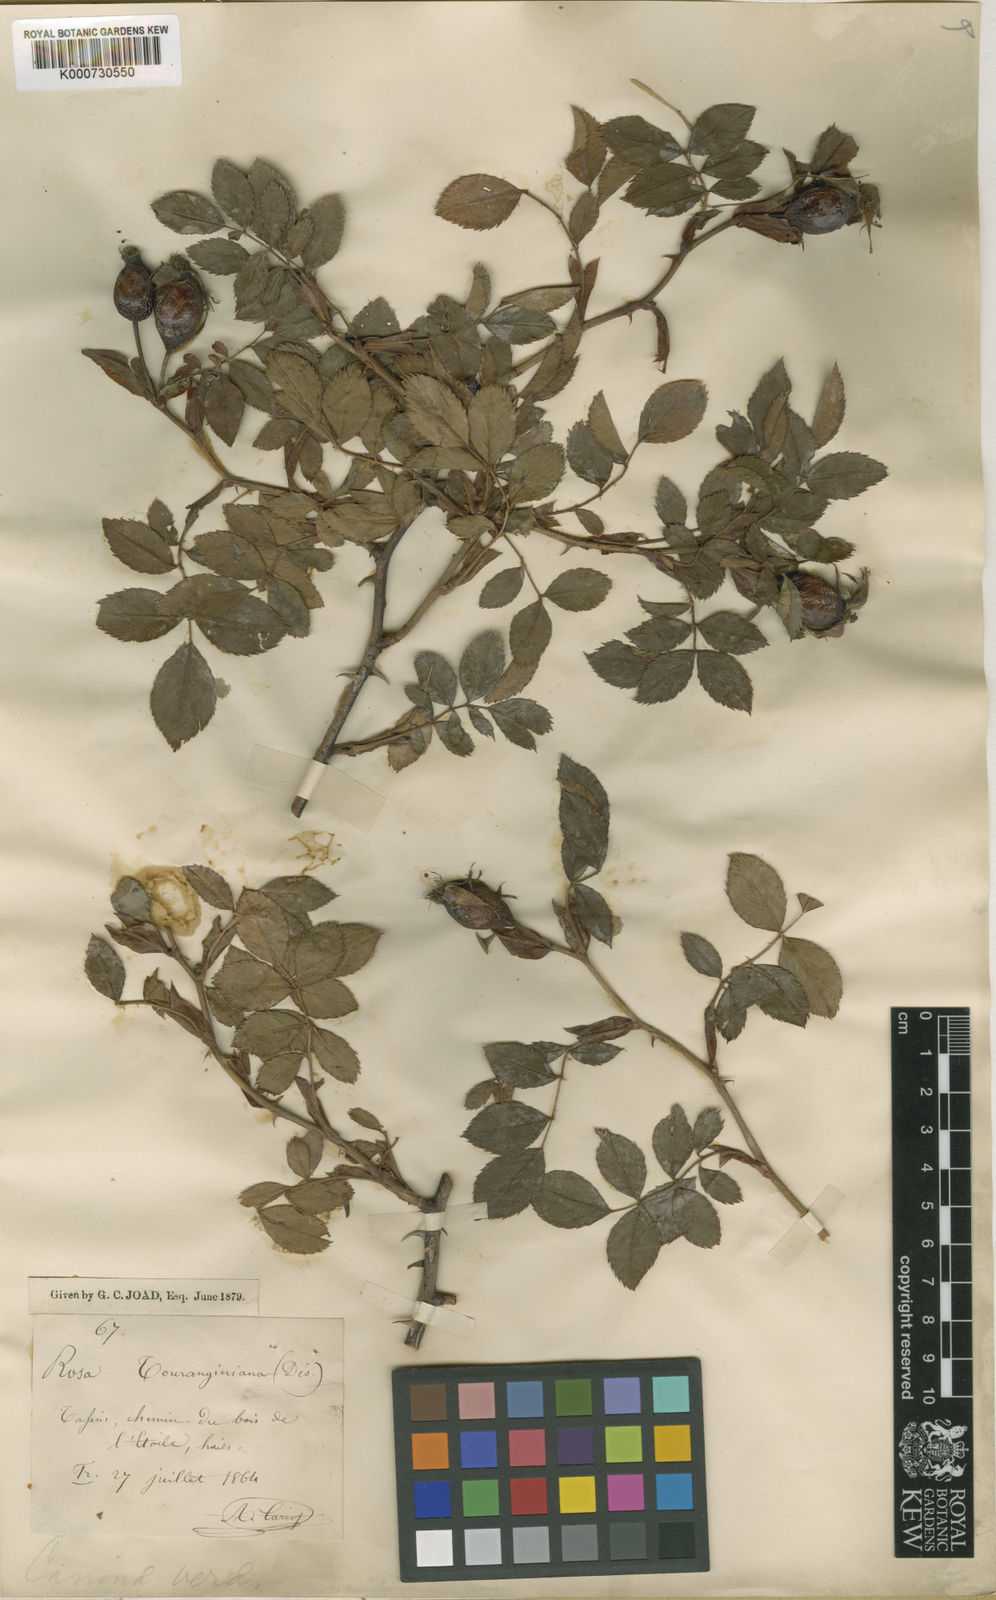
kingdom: Plantae
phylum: Tracheophyta
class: Magnoliopsida
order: Rosales
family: Rosaceae
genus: Rosa
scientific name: Rosa
